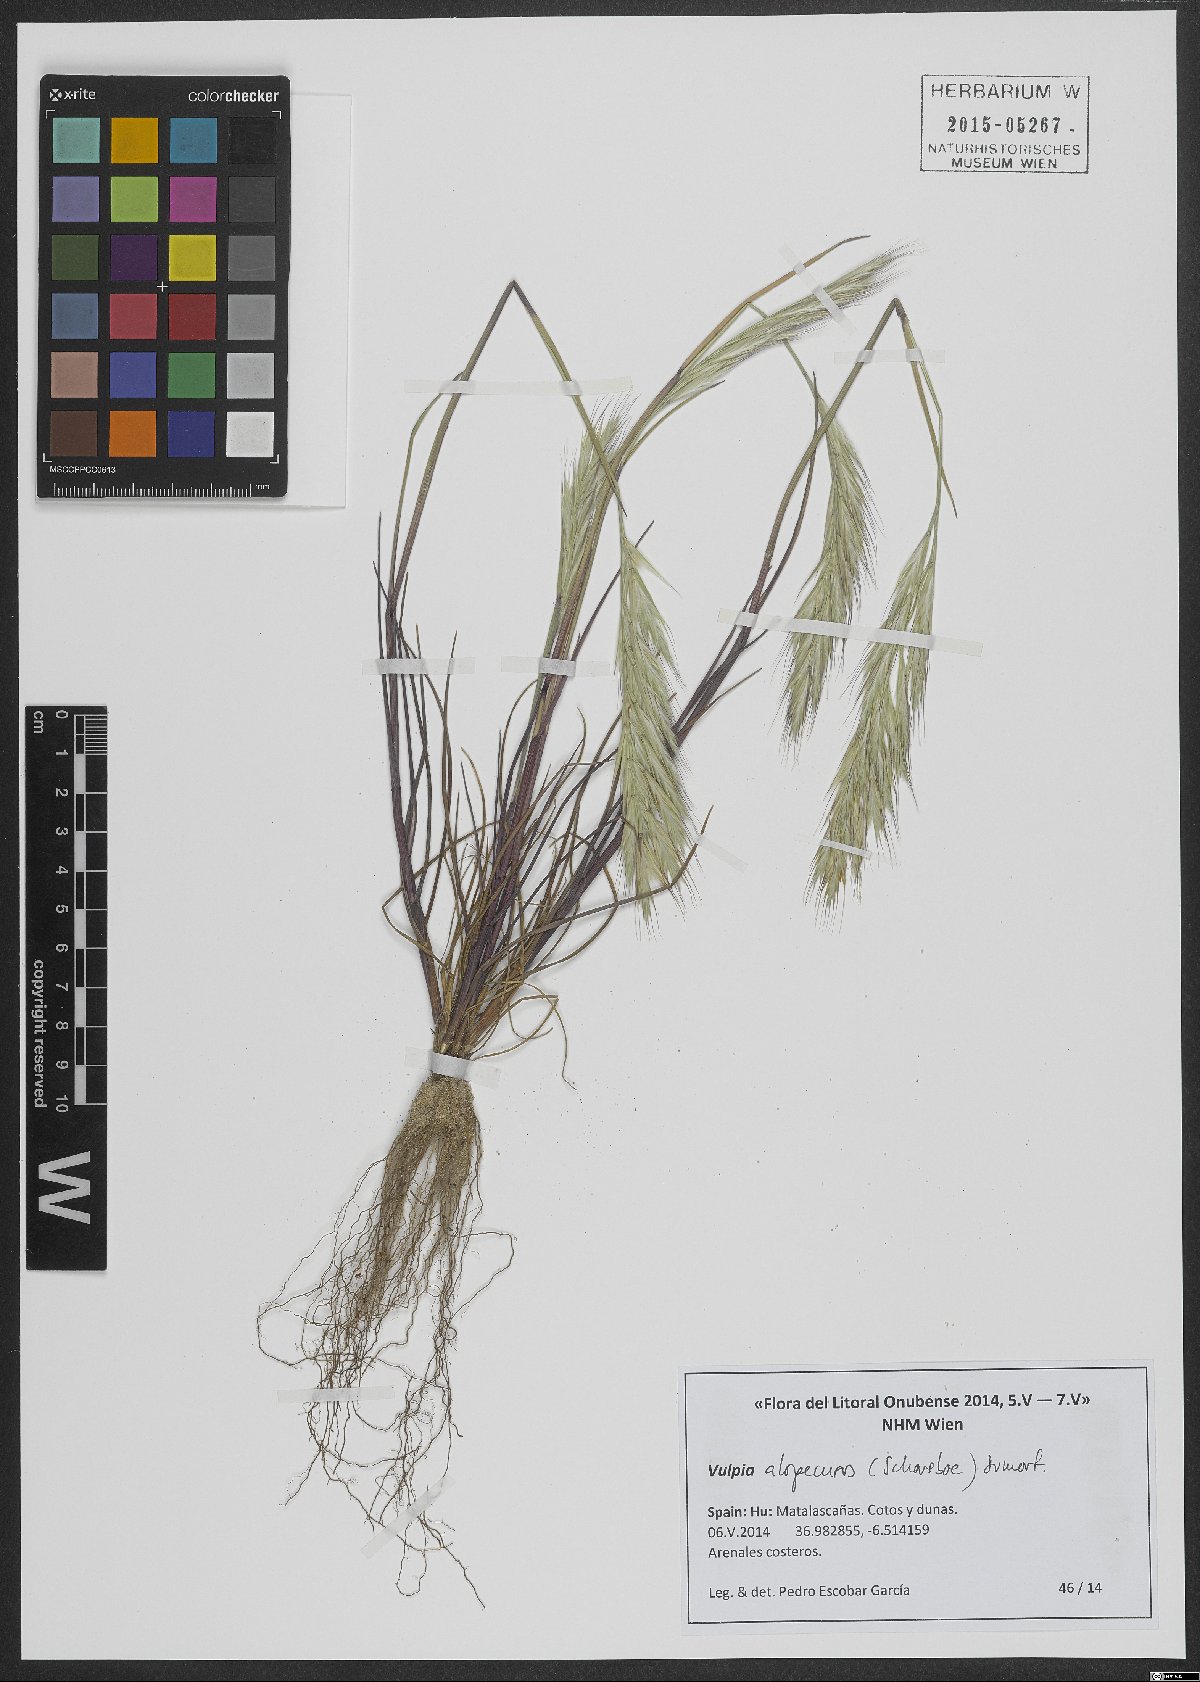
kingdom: Plantae
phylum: Tracheophyta
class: Liliopsida
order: Poales
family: Poaceae
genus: Festuca
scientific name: Festuca alopecuros
